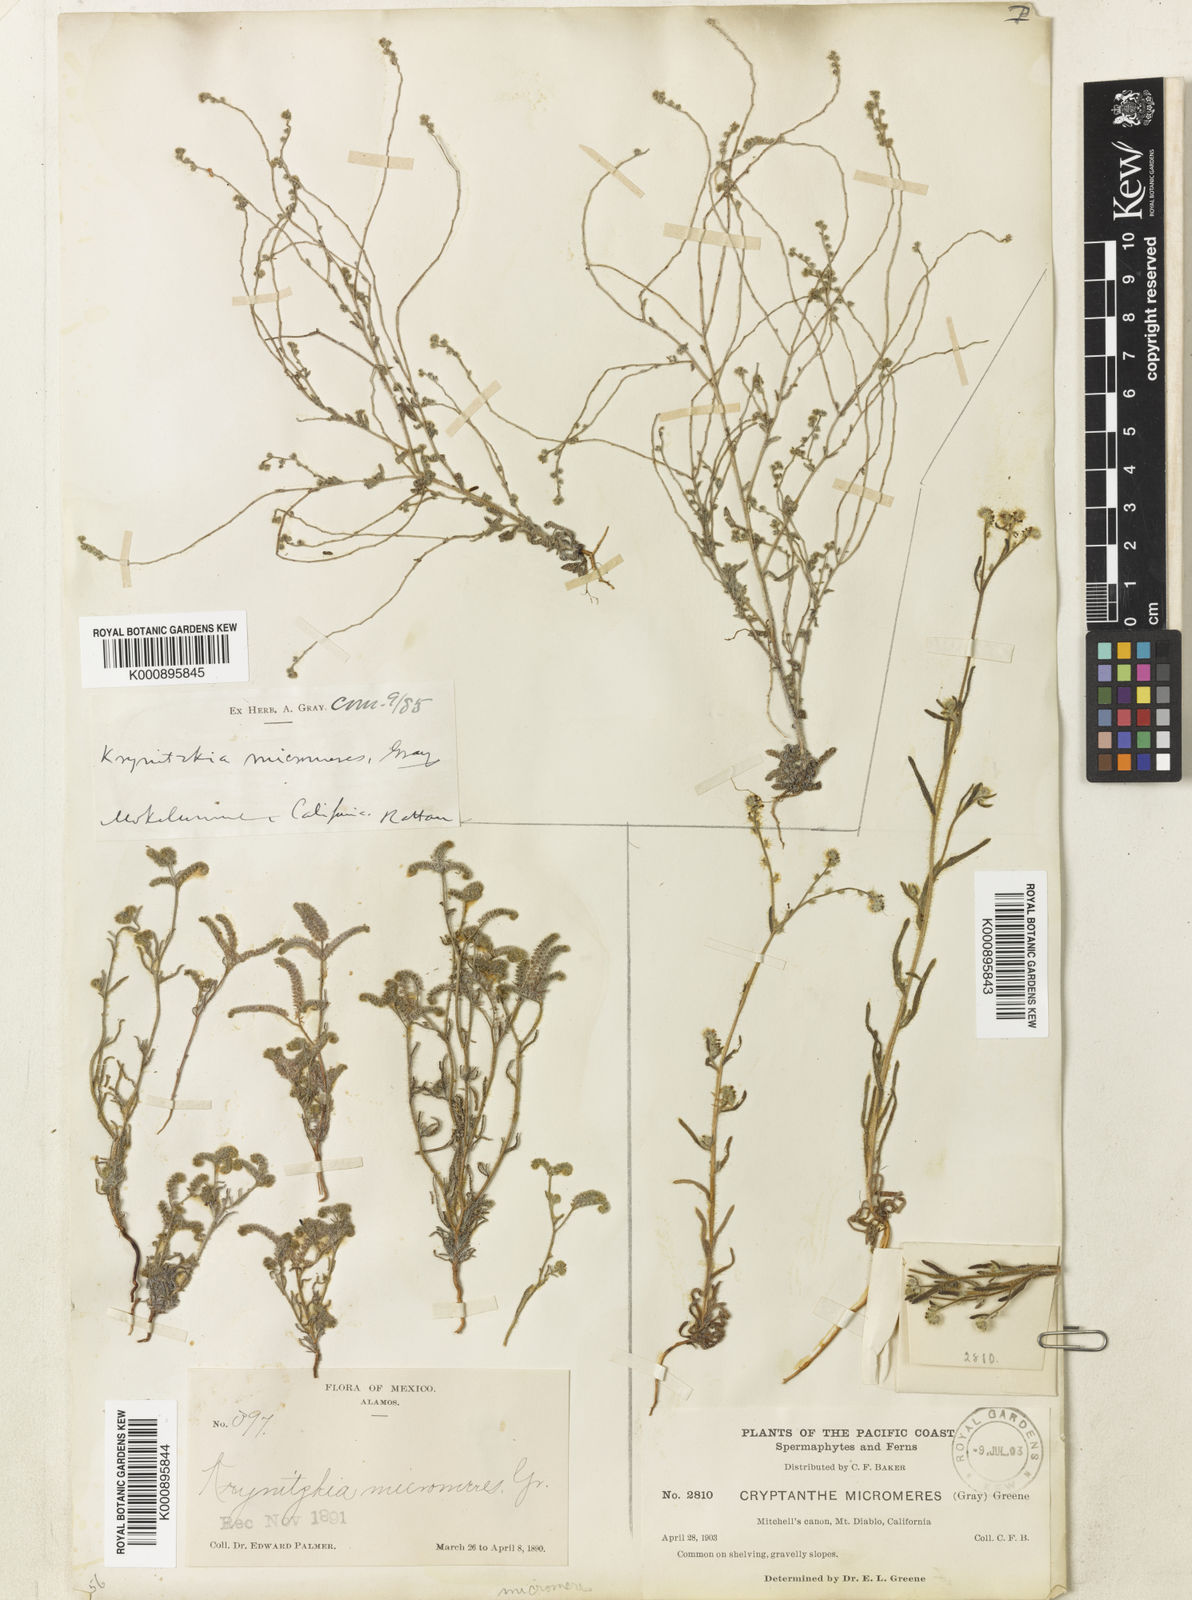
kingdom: Plantae
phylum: Tracheophyta
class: Magnoliopsida
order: Boraginales
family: Boraginaceae
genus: Johnstonella
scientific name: Johnstonella micromeres
